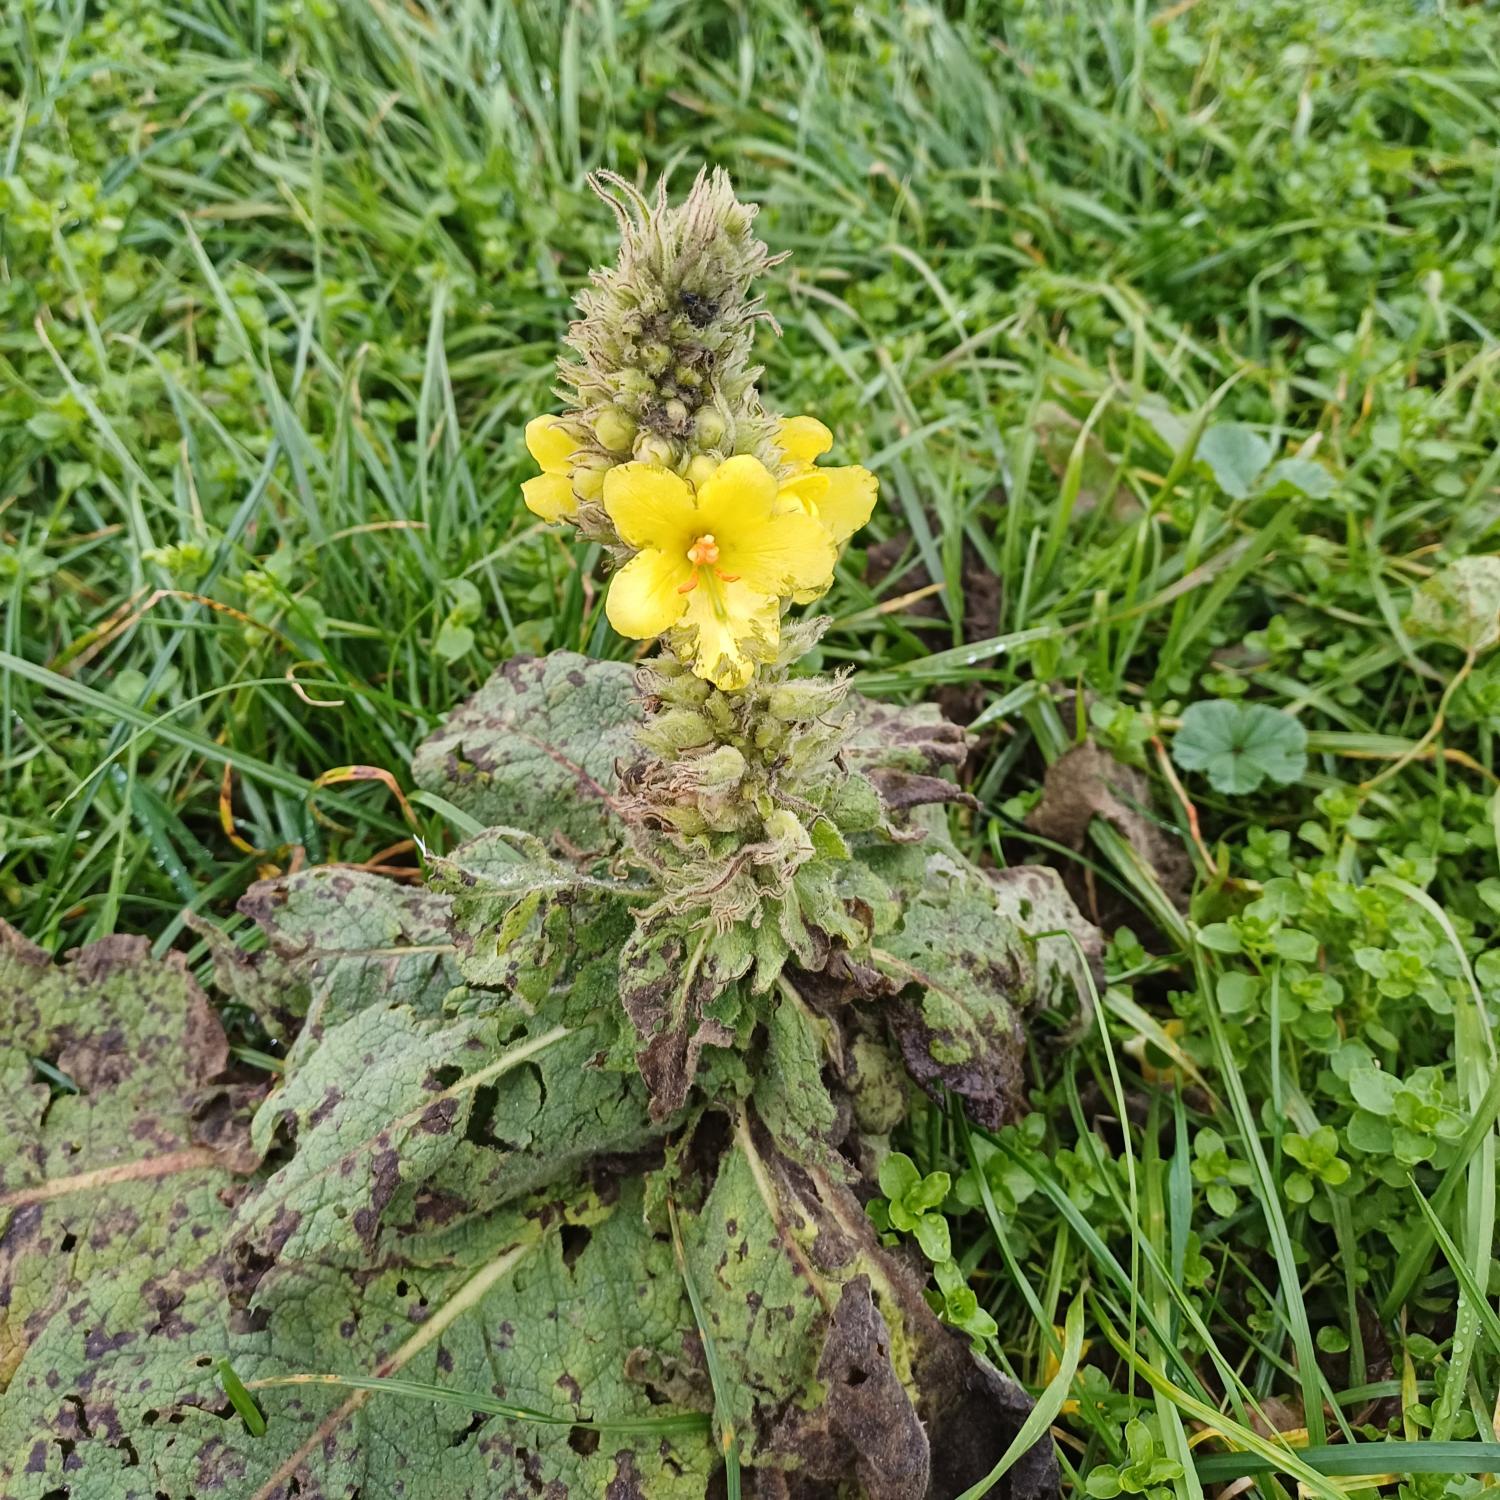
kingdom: Plantae
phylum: Tracheophyta
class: Magnoliopsida
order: Lamiales
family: Scrophulariaceae
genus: Verbascum
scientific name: Verbascum densiflorum
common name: Uldbladet kongelys
